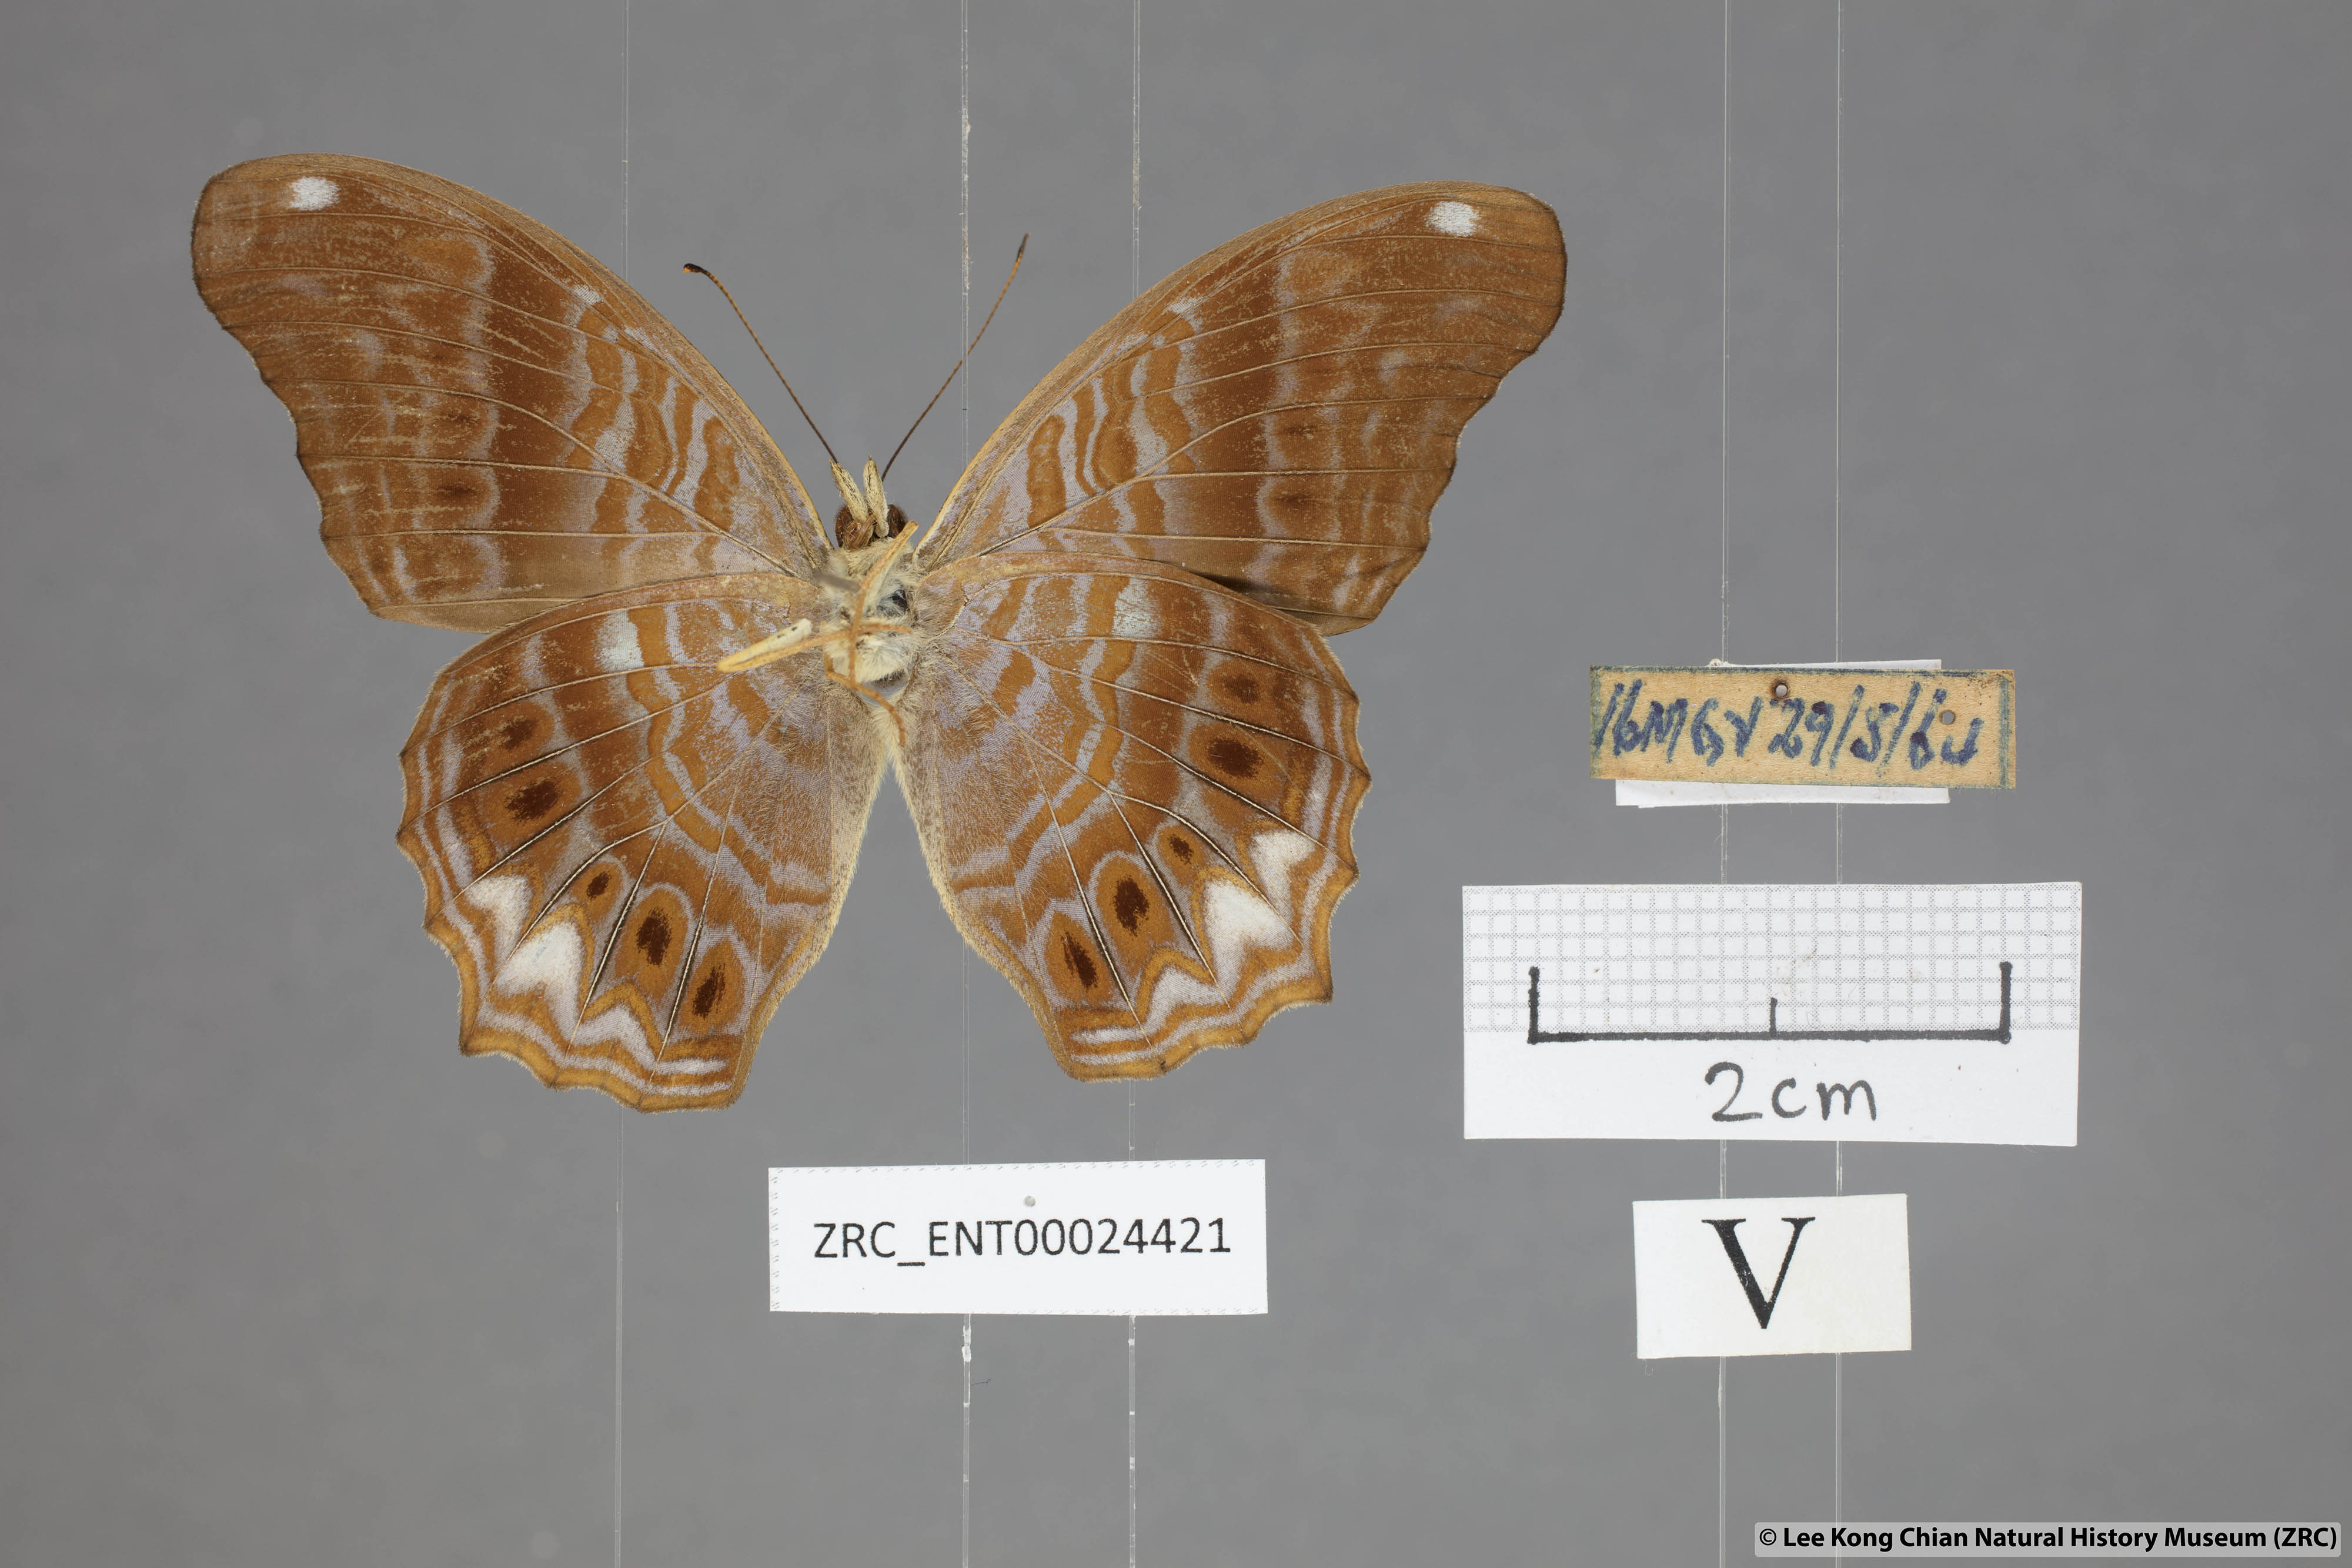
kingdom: Animalia
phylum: Arthropoda
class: Insecta
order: Lepidoptera
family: Nymphalidae
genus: Terinos
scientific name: Terinos atlita
